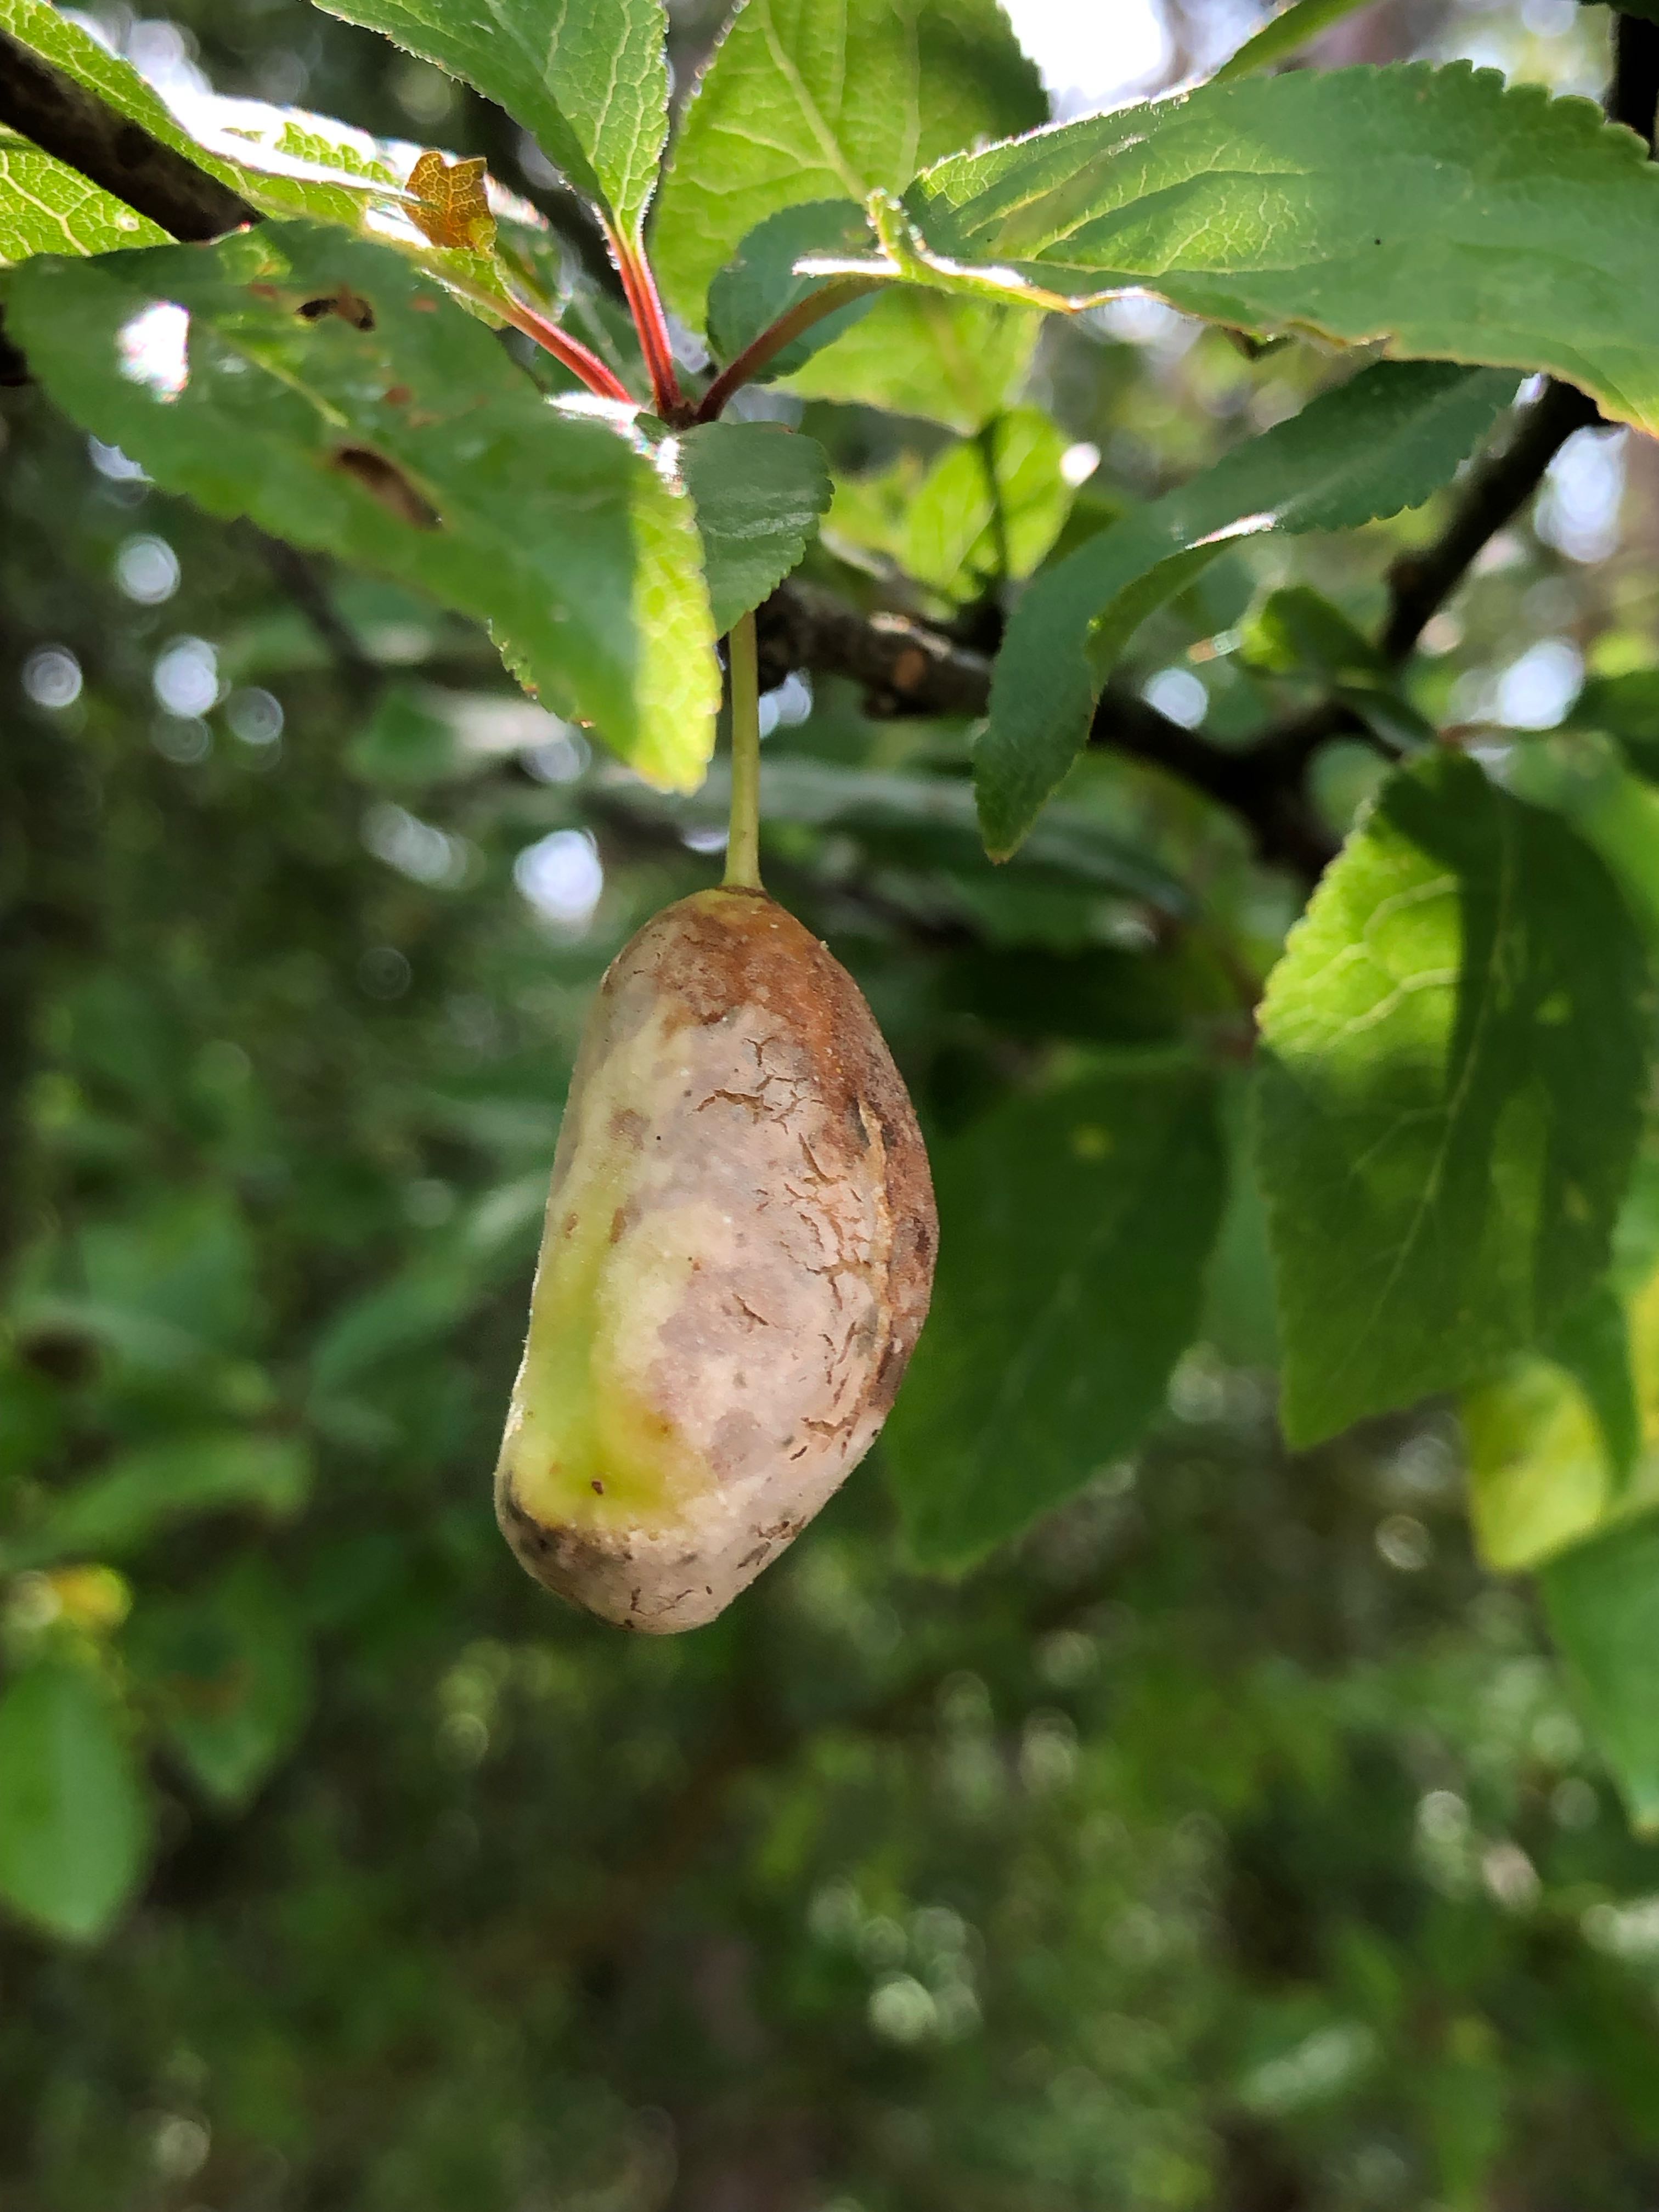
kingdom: Fungi
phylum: Ascomycota
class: Taphrinomycetes
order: Taphrinales
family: Taphrinaceae
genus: Taphrina
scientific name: Taphrina pruni
